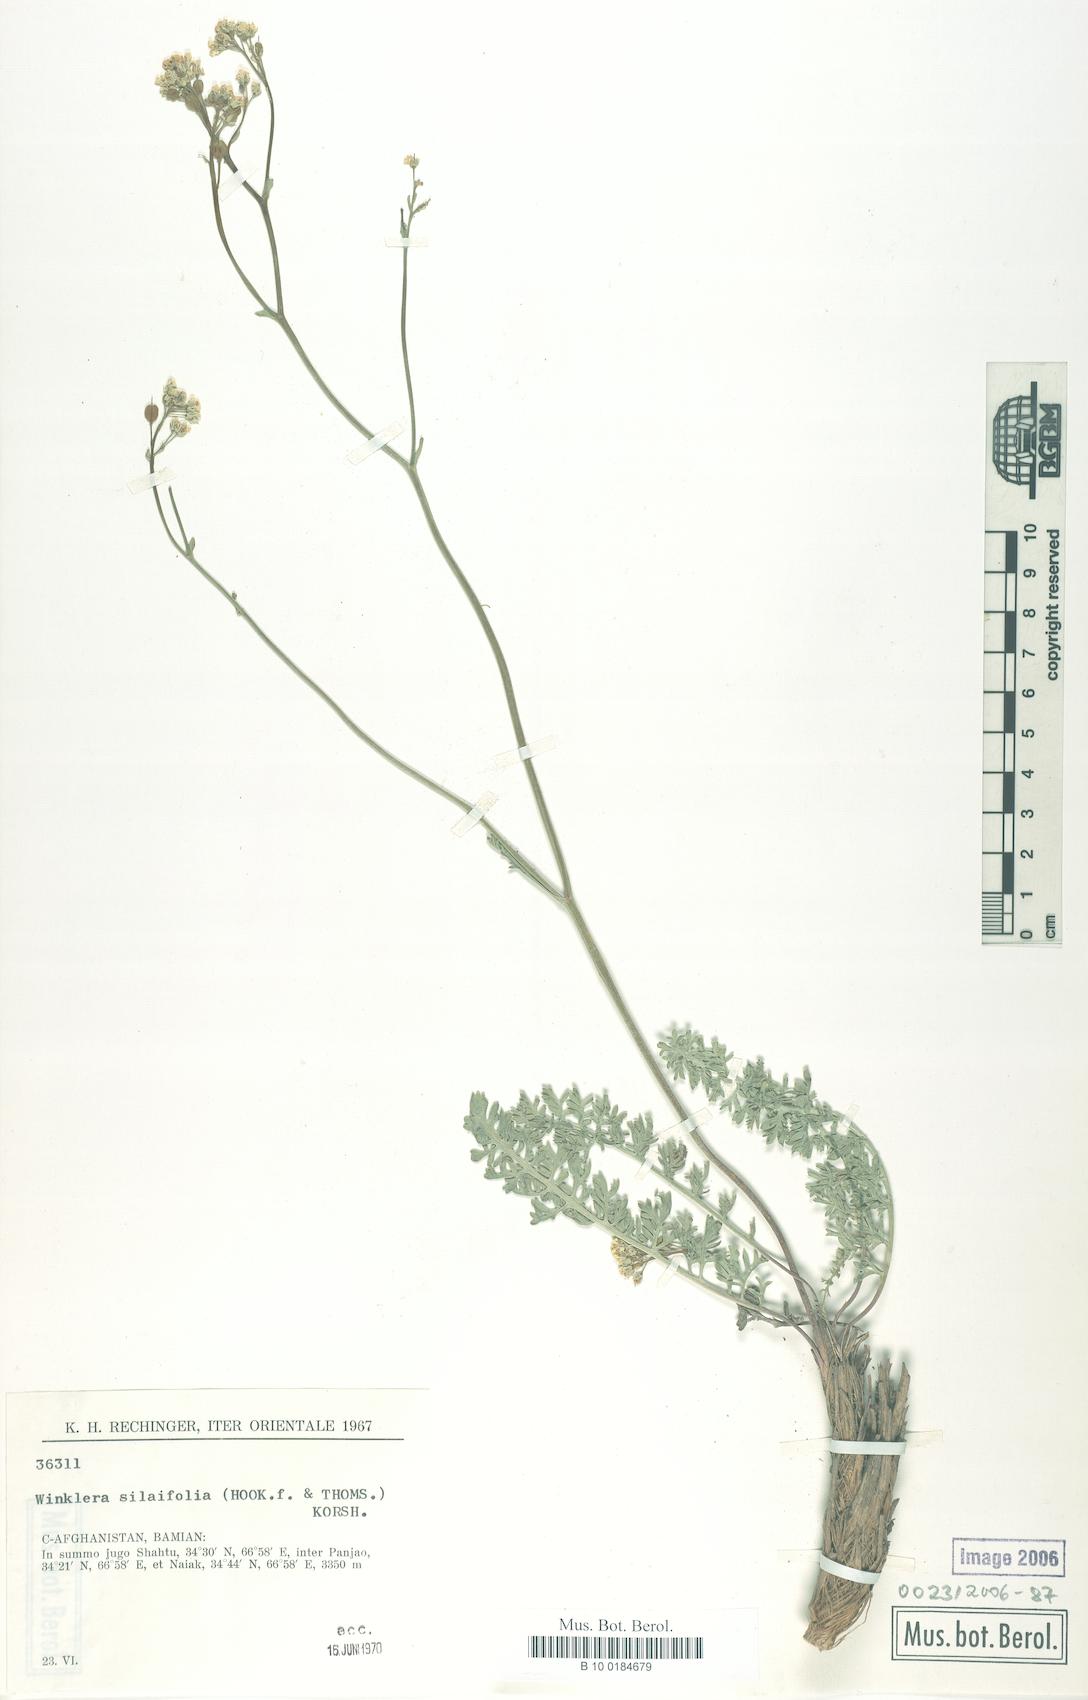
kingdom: Plantae
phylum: Tracheophyta
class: Magnoliopsida
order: Brassicales
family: Brassicaceae
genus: Lepidium
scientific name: Lepidium silaifolium
